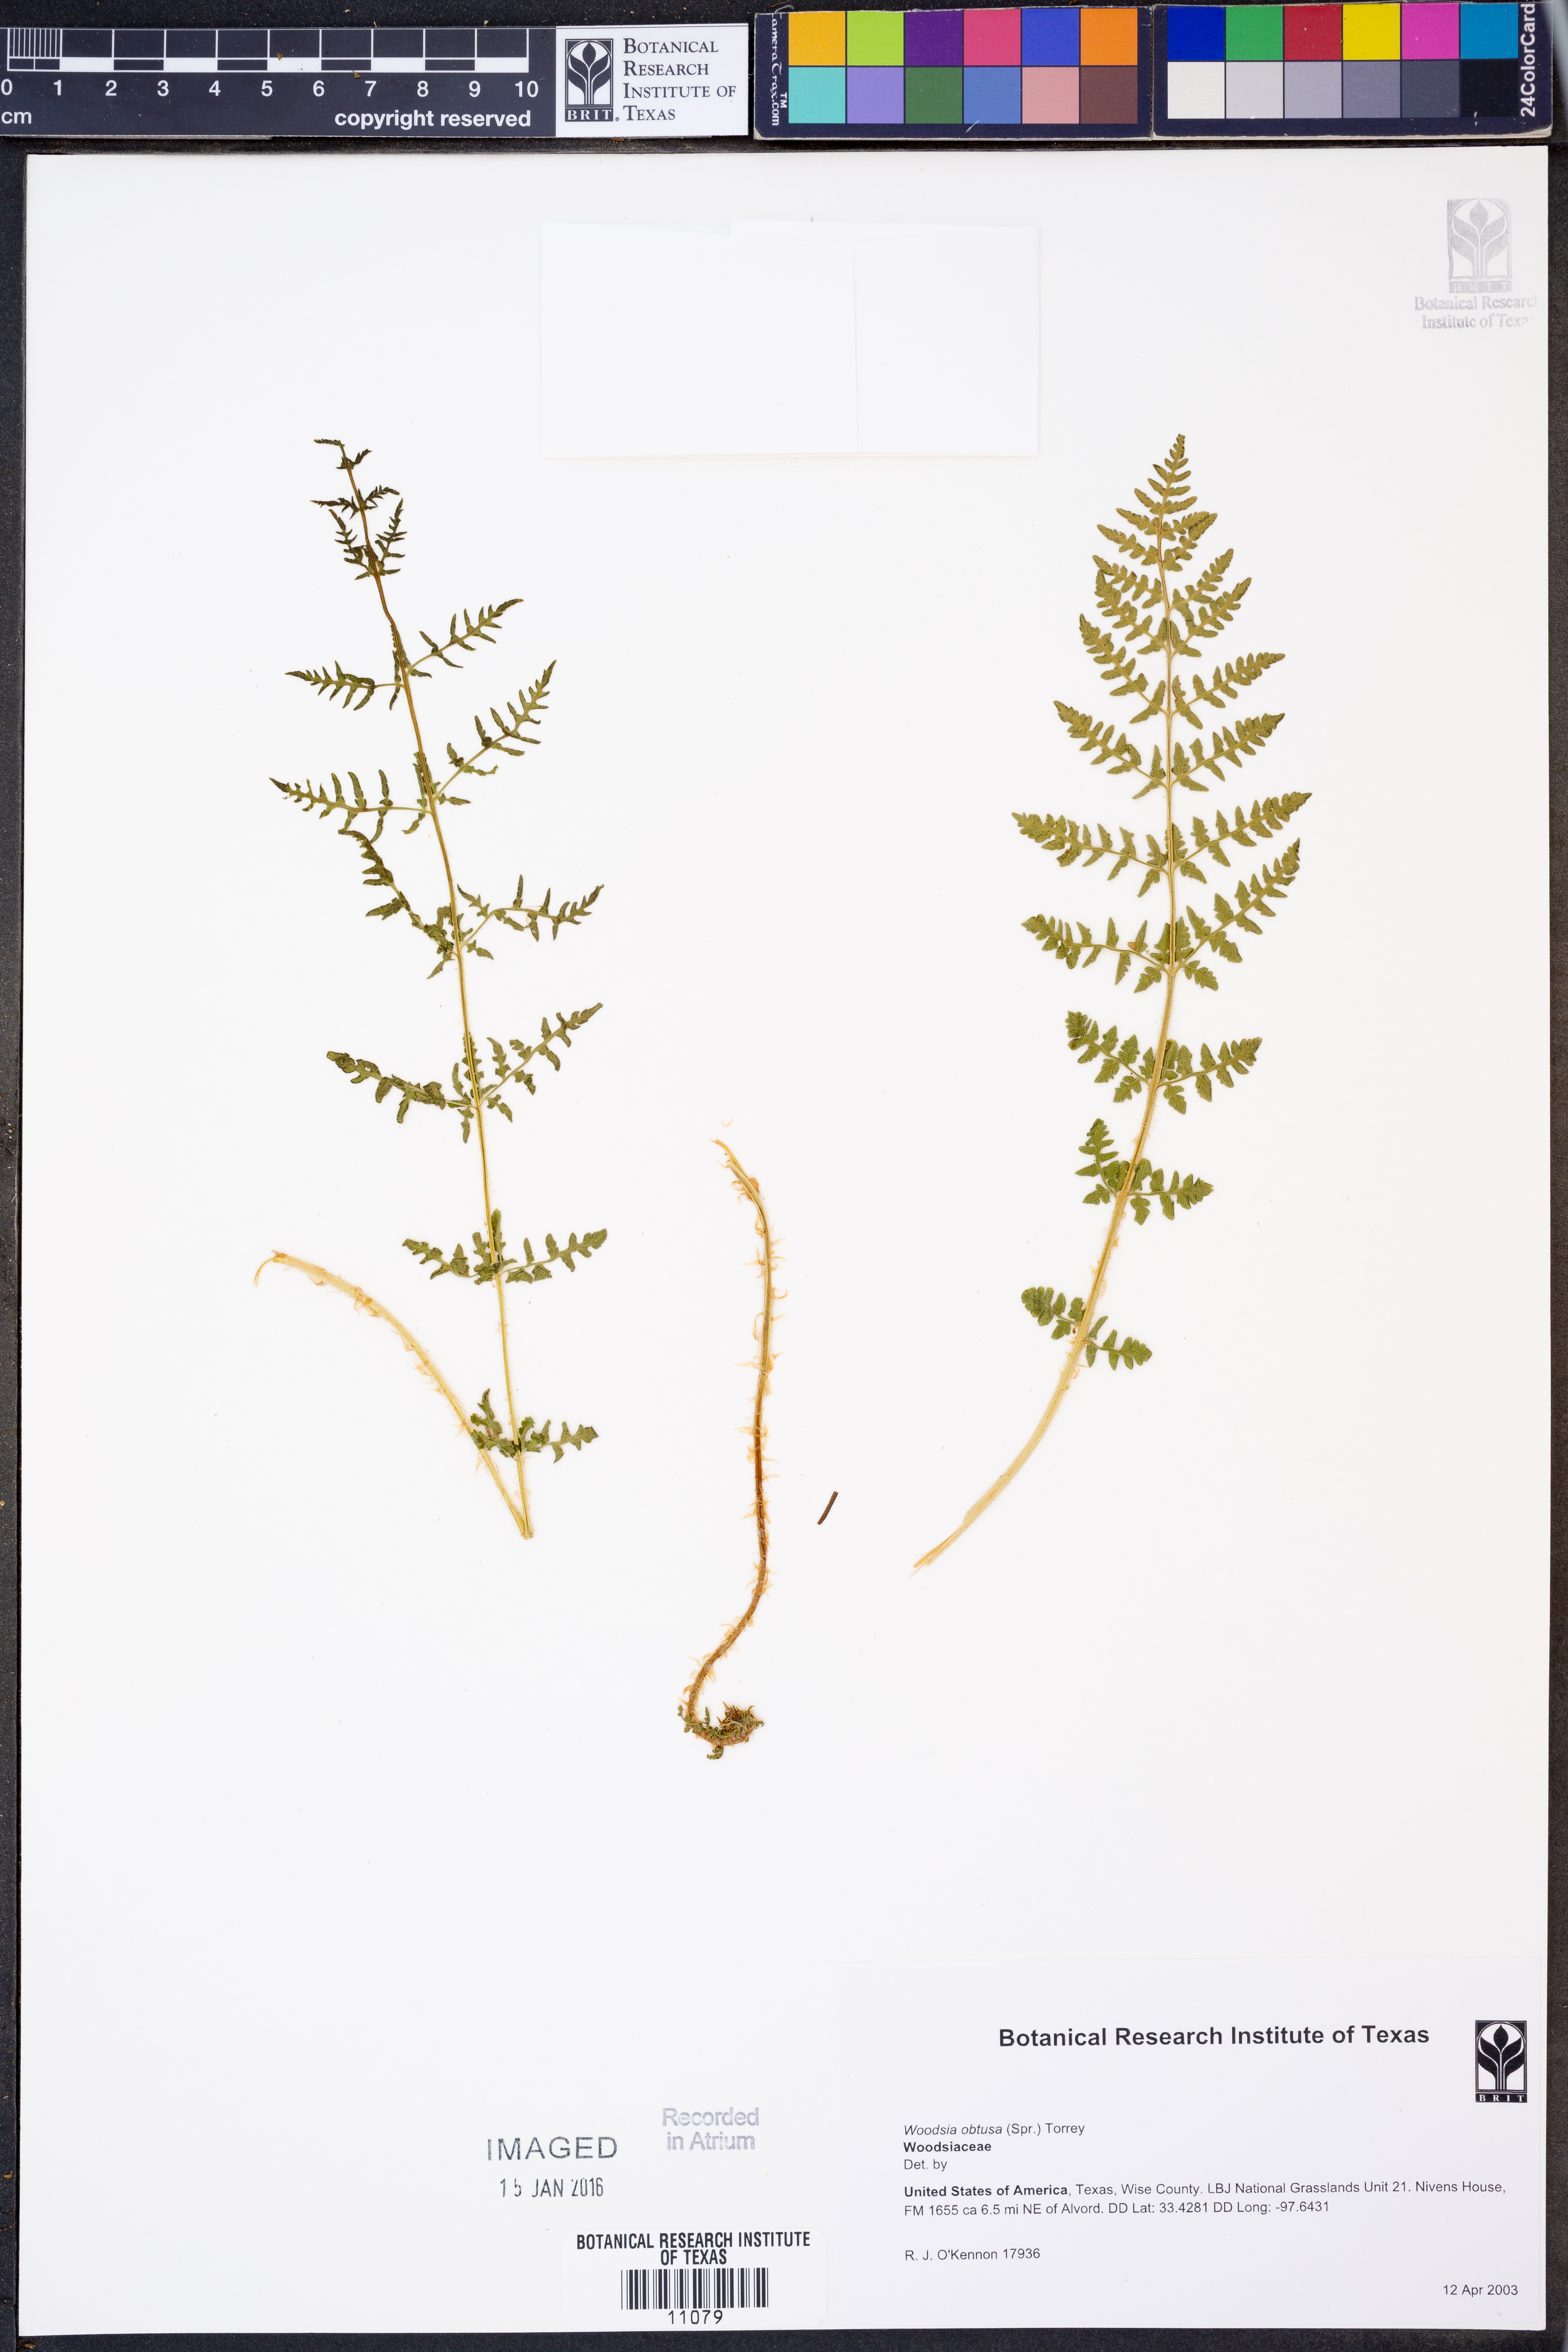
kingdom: Plantae
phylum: Tracheophyta
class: Polypodiopsida
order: Polypodiales
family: Woodsiaceae
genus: Physematium
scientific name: Physematium obtusum
